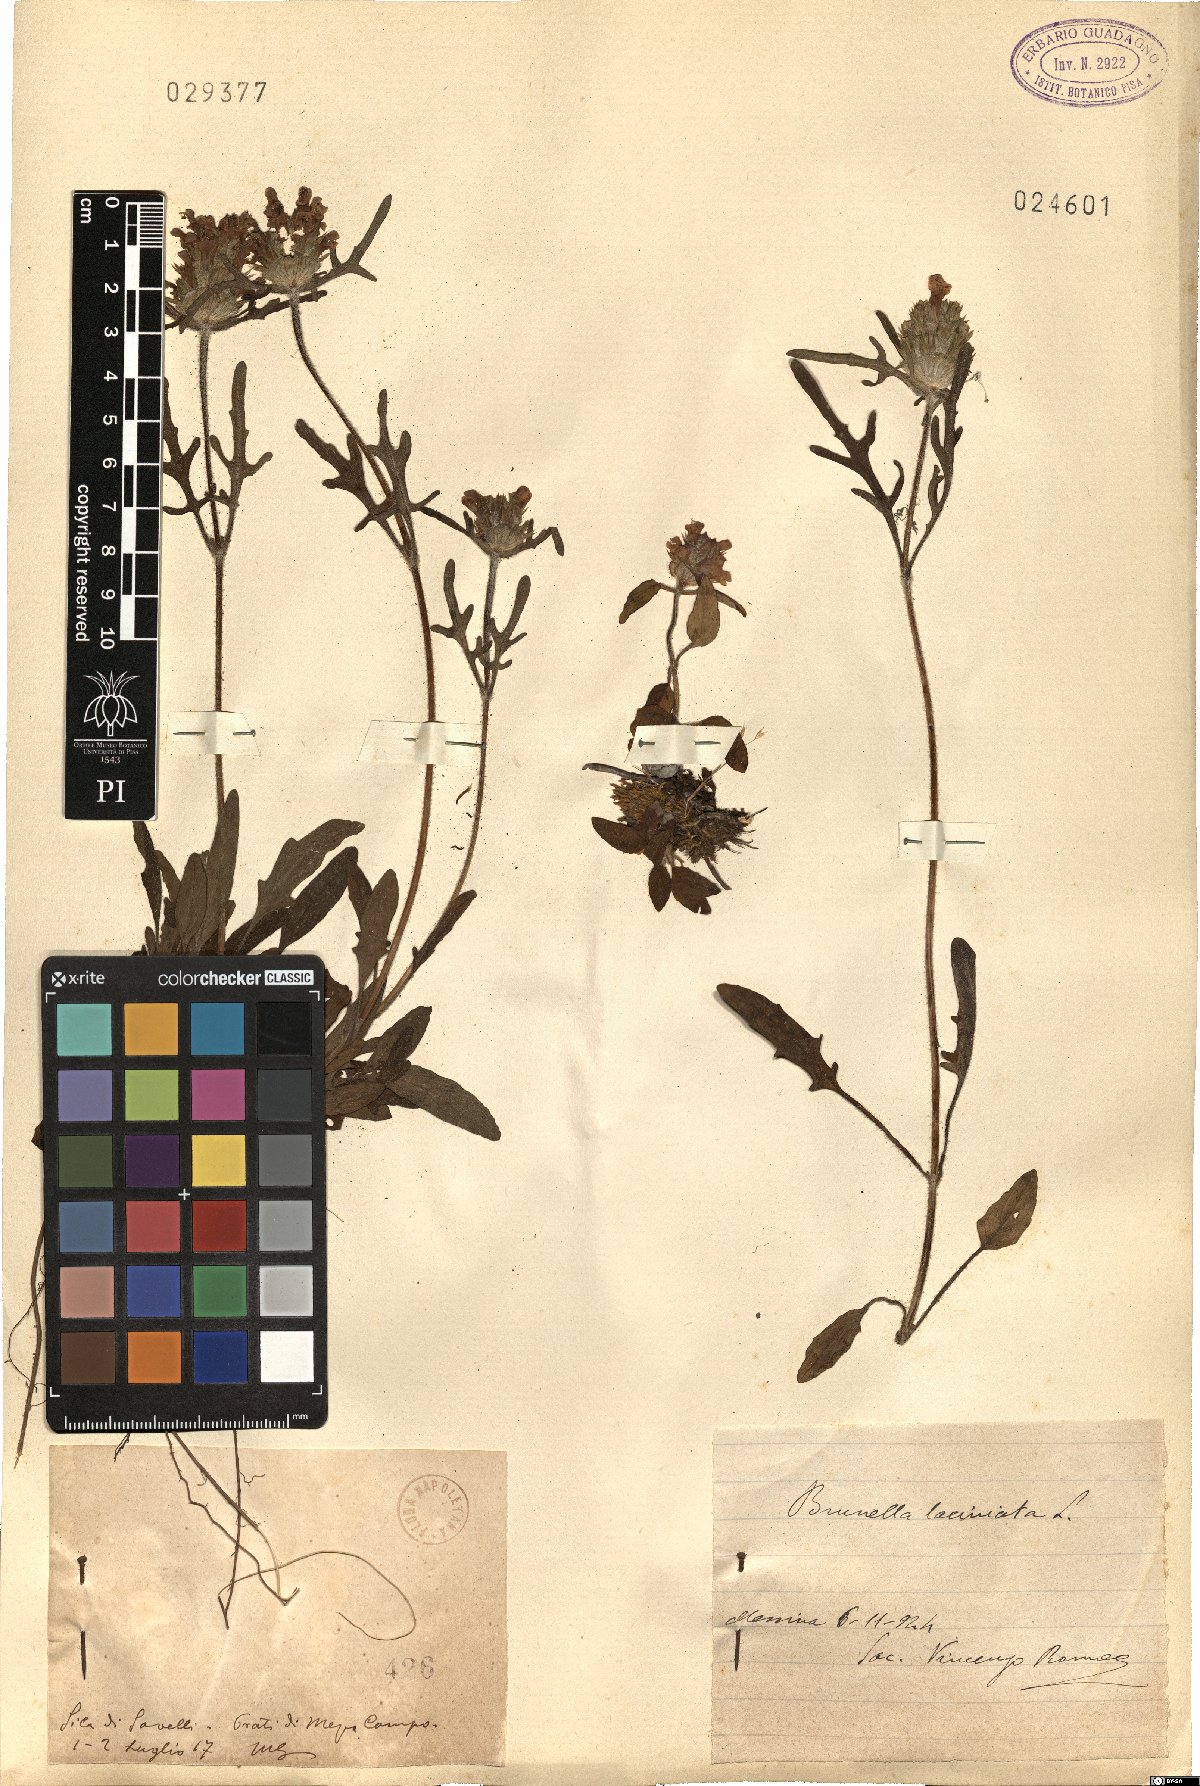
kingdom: Plantae
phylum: Tracheophyta
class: Magnoliopsida
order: Lamiales
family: Lamiaceae
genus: Prunella
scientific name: Prunella
